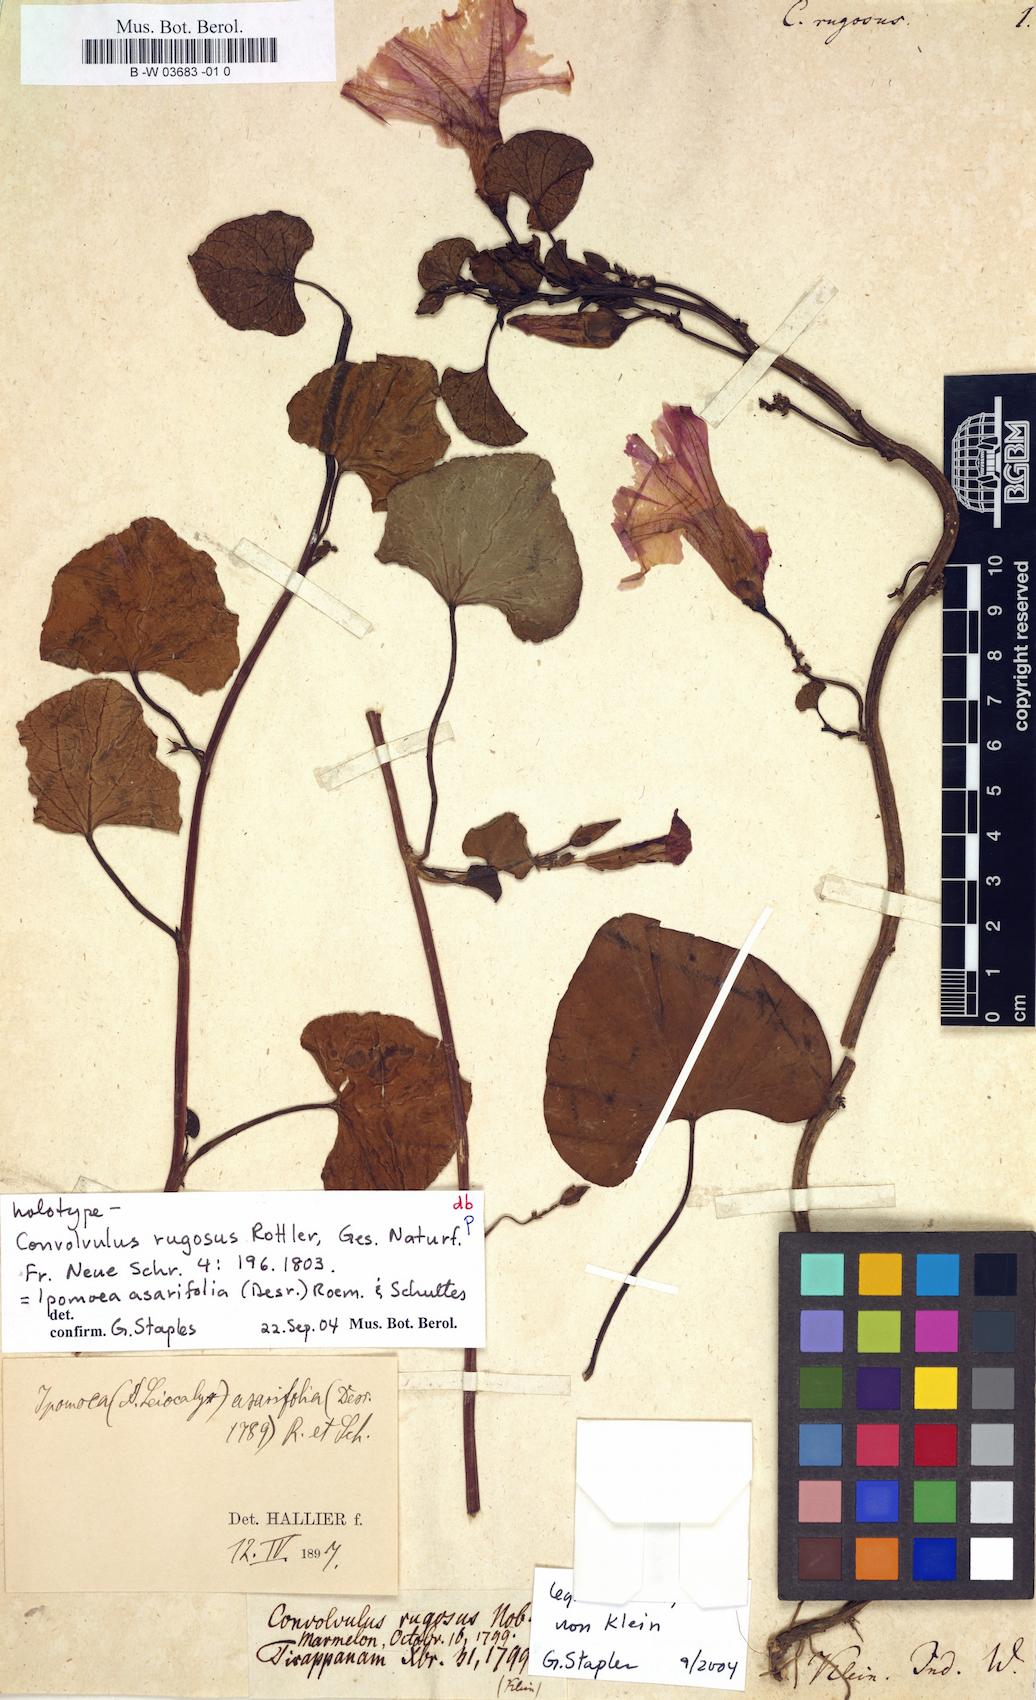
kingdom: Plantae
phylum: Tracheophyta
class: Magnoliopsida
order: Solanales
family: Convolvulaceae
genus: Ipomoea
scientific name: Ipomoea asarifolia
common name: Ginger-leaf morning-glory
